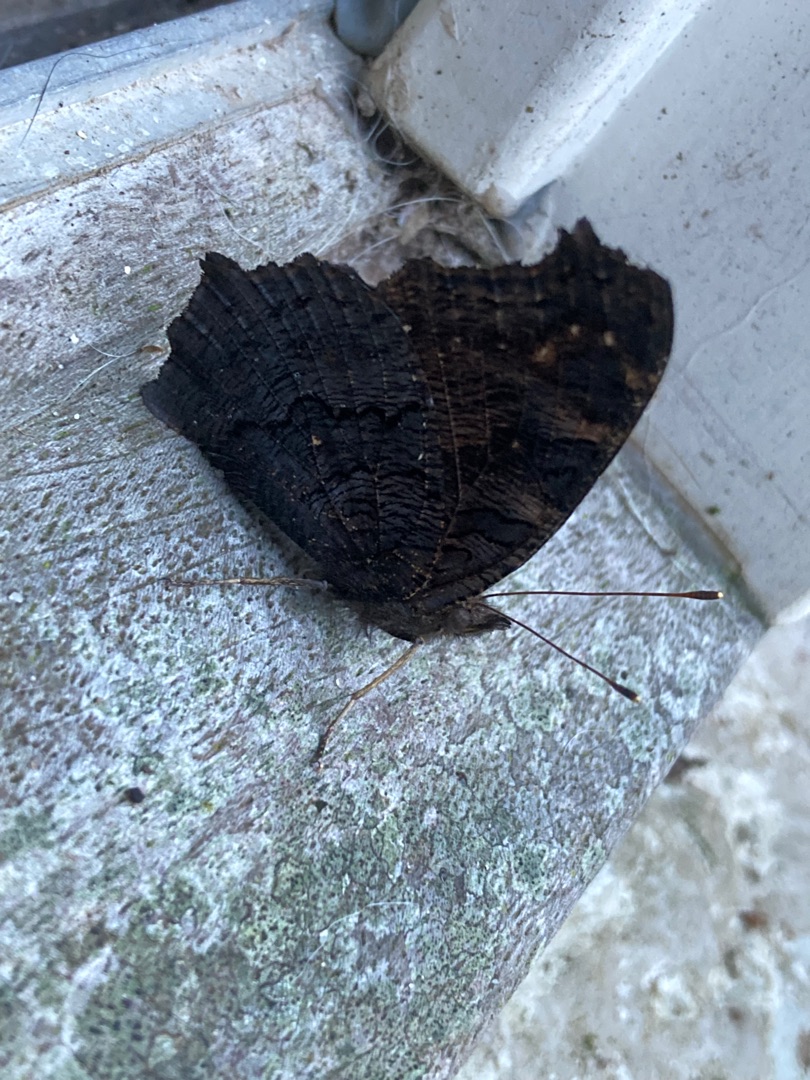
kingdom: Animalia
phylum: Arthropoda
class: Insecta
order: Lepidoptera
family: Nymphalidae
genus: Aglais
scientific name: Aglais io
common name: Dagpåfugleøje
